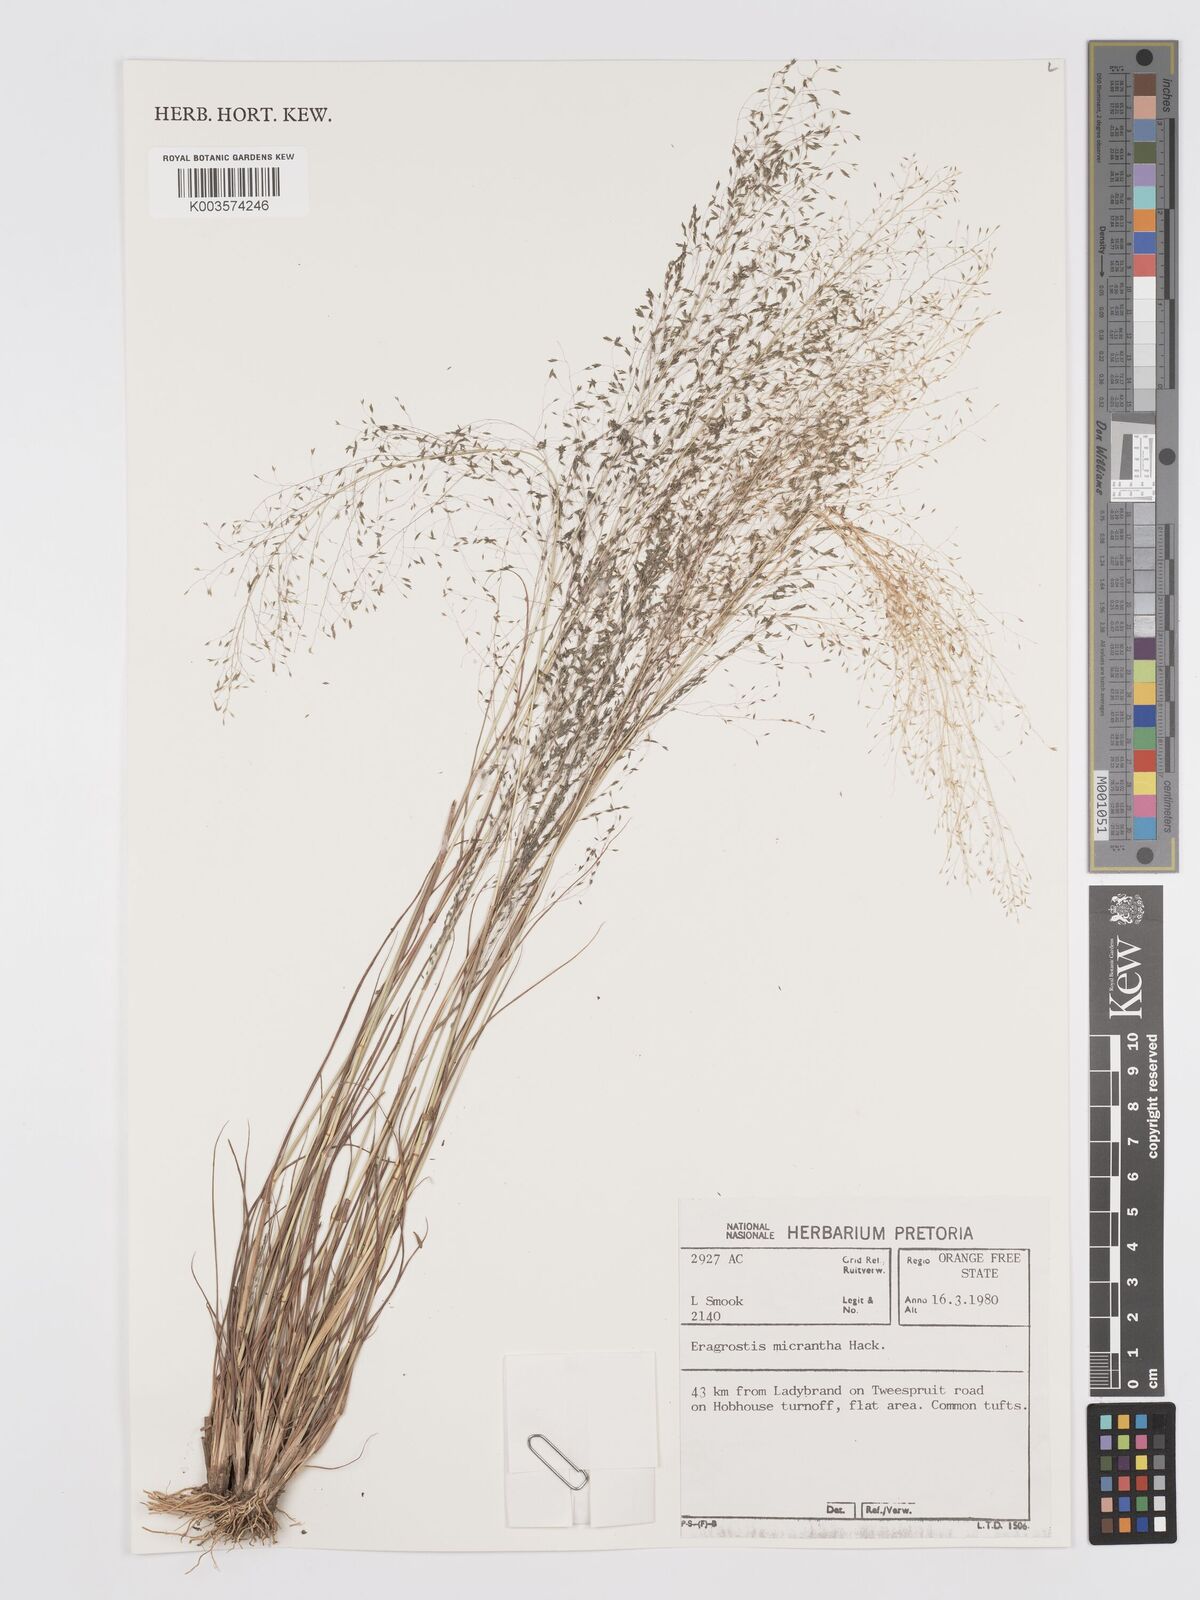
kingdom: Plantae
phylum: Tracheophyta
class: Liliopsida
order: Poales
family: Poaceae
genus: Eragrostis
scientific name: Eragrostis micrantha
